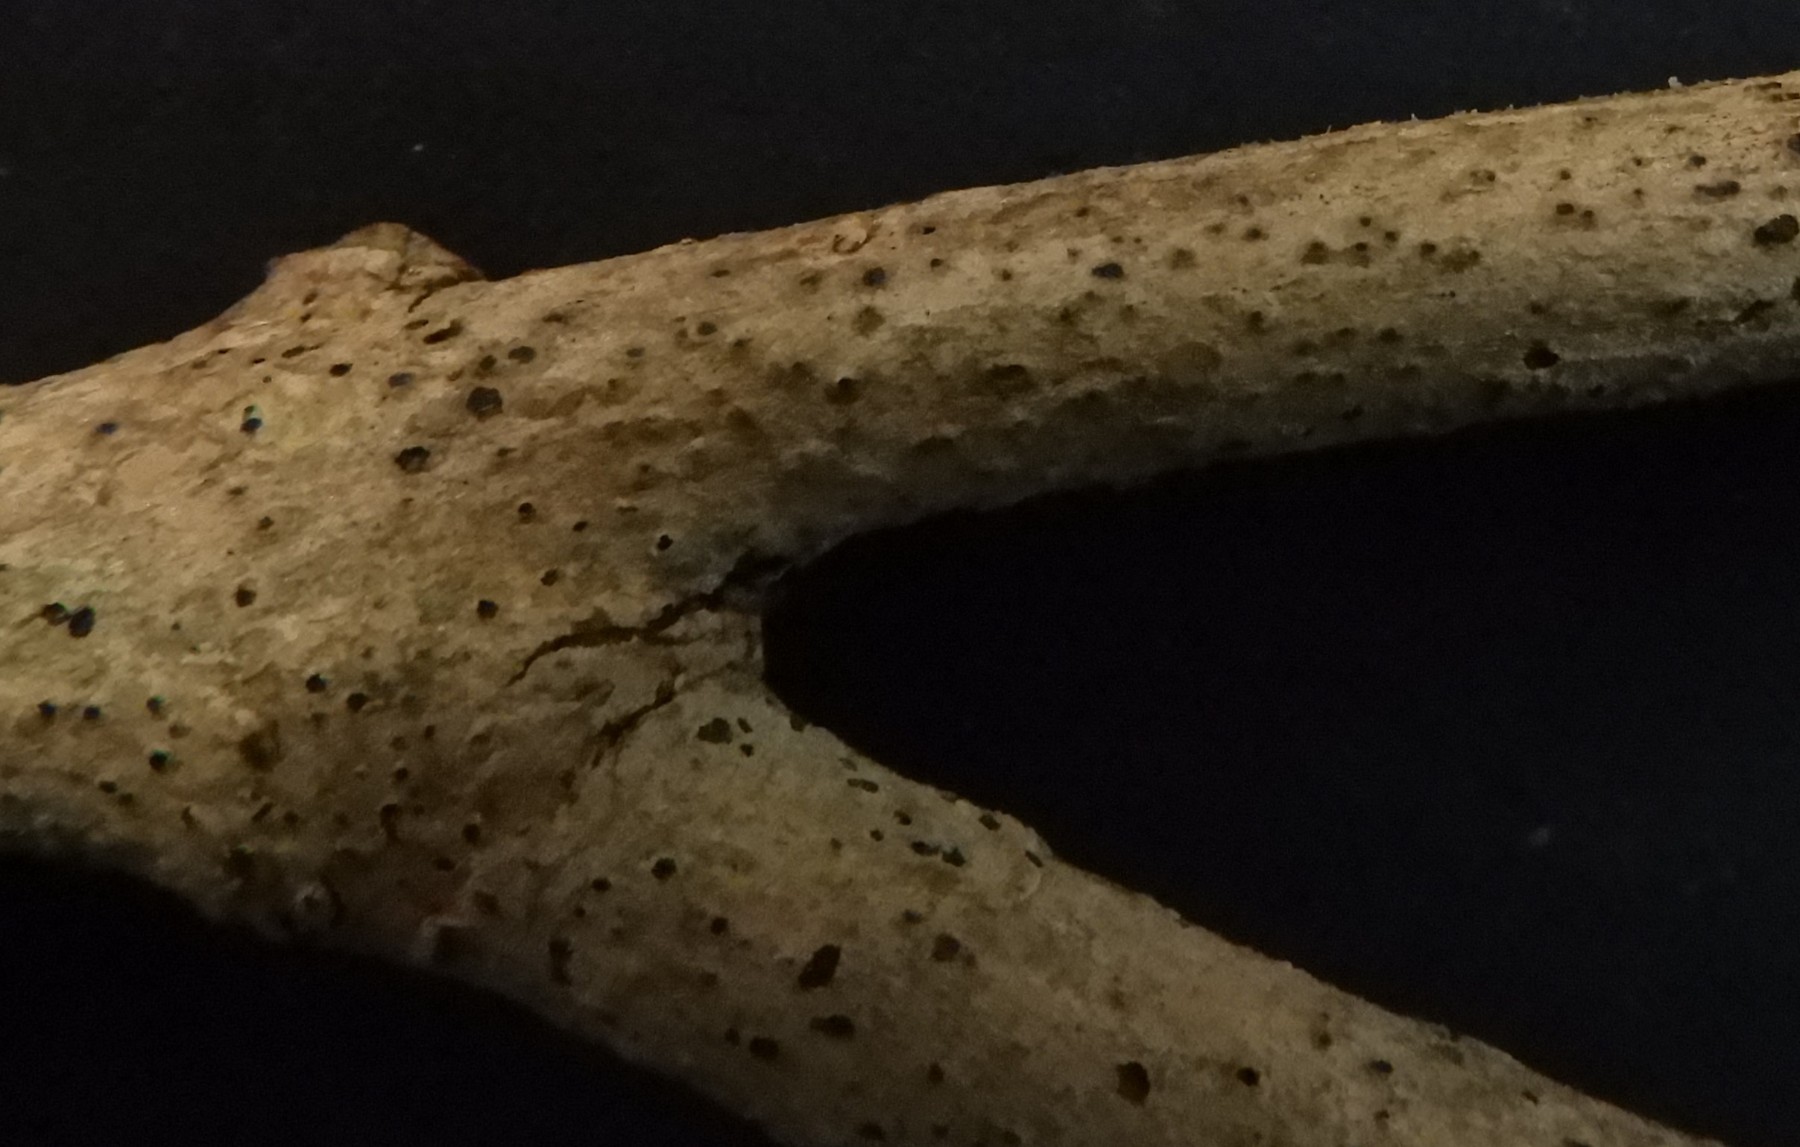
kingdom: Fungi
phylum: Ascomycota
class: Sordariomycetes
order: Diaporthales
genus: Botryodiplodia
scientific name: Botryodiplodia fraxini
